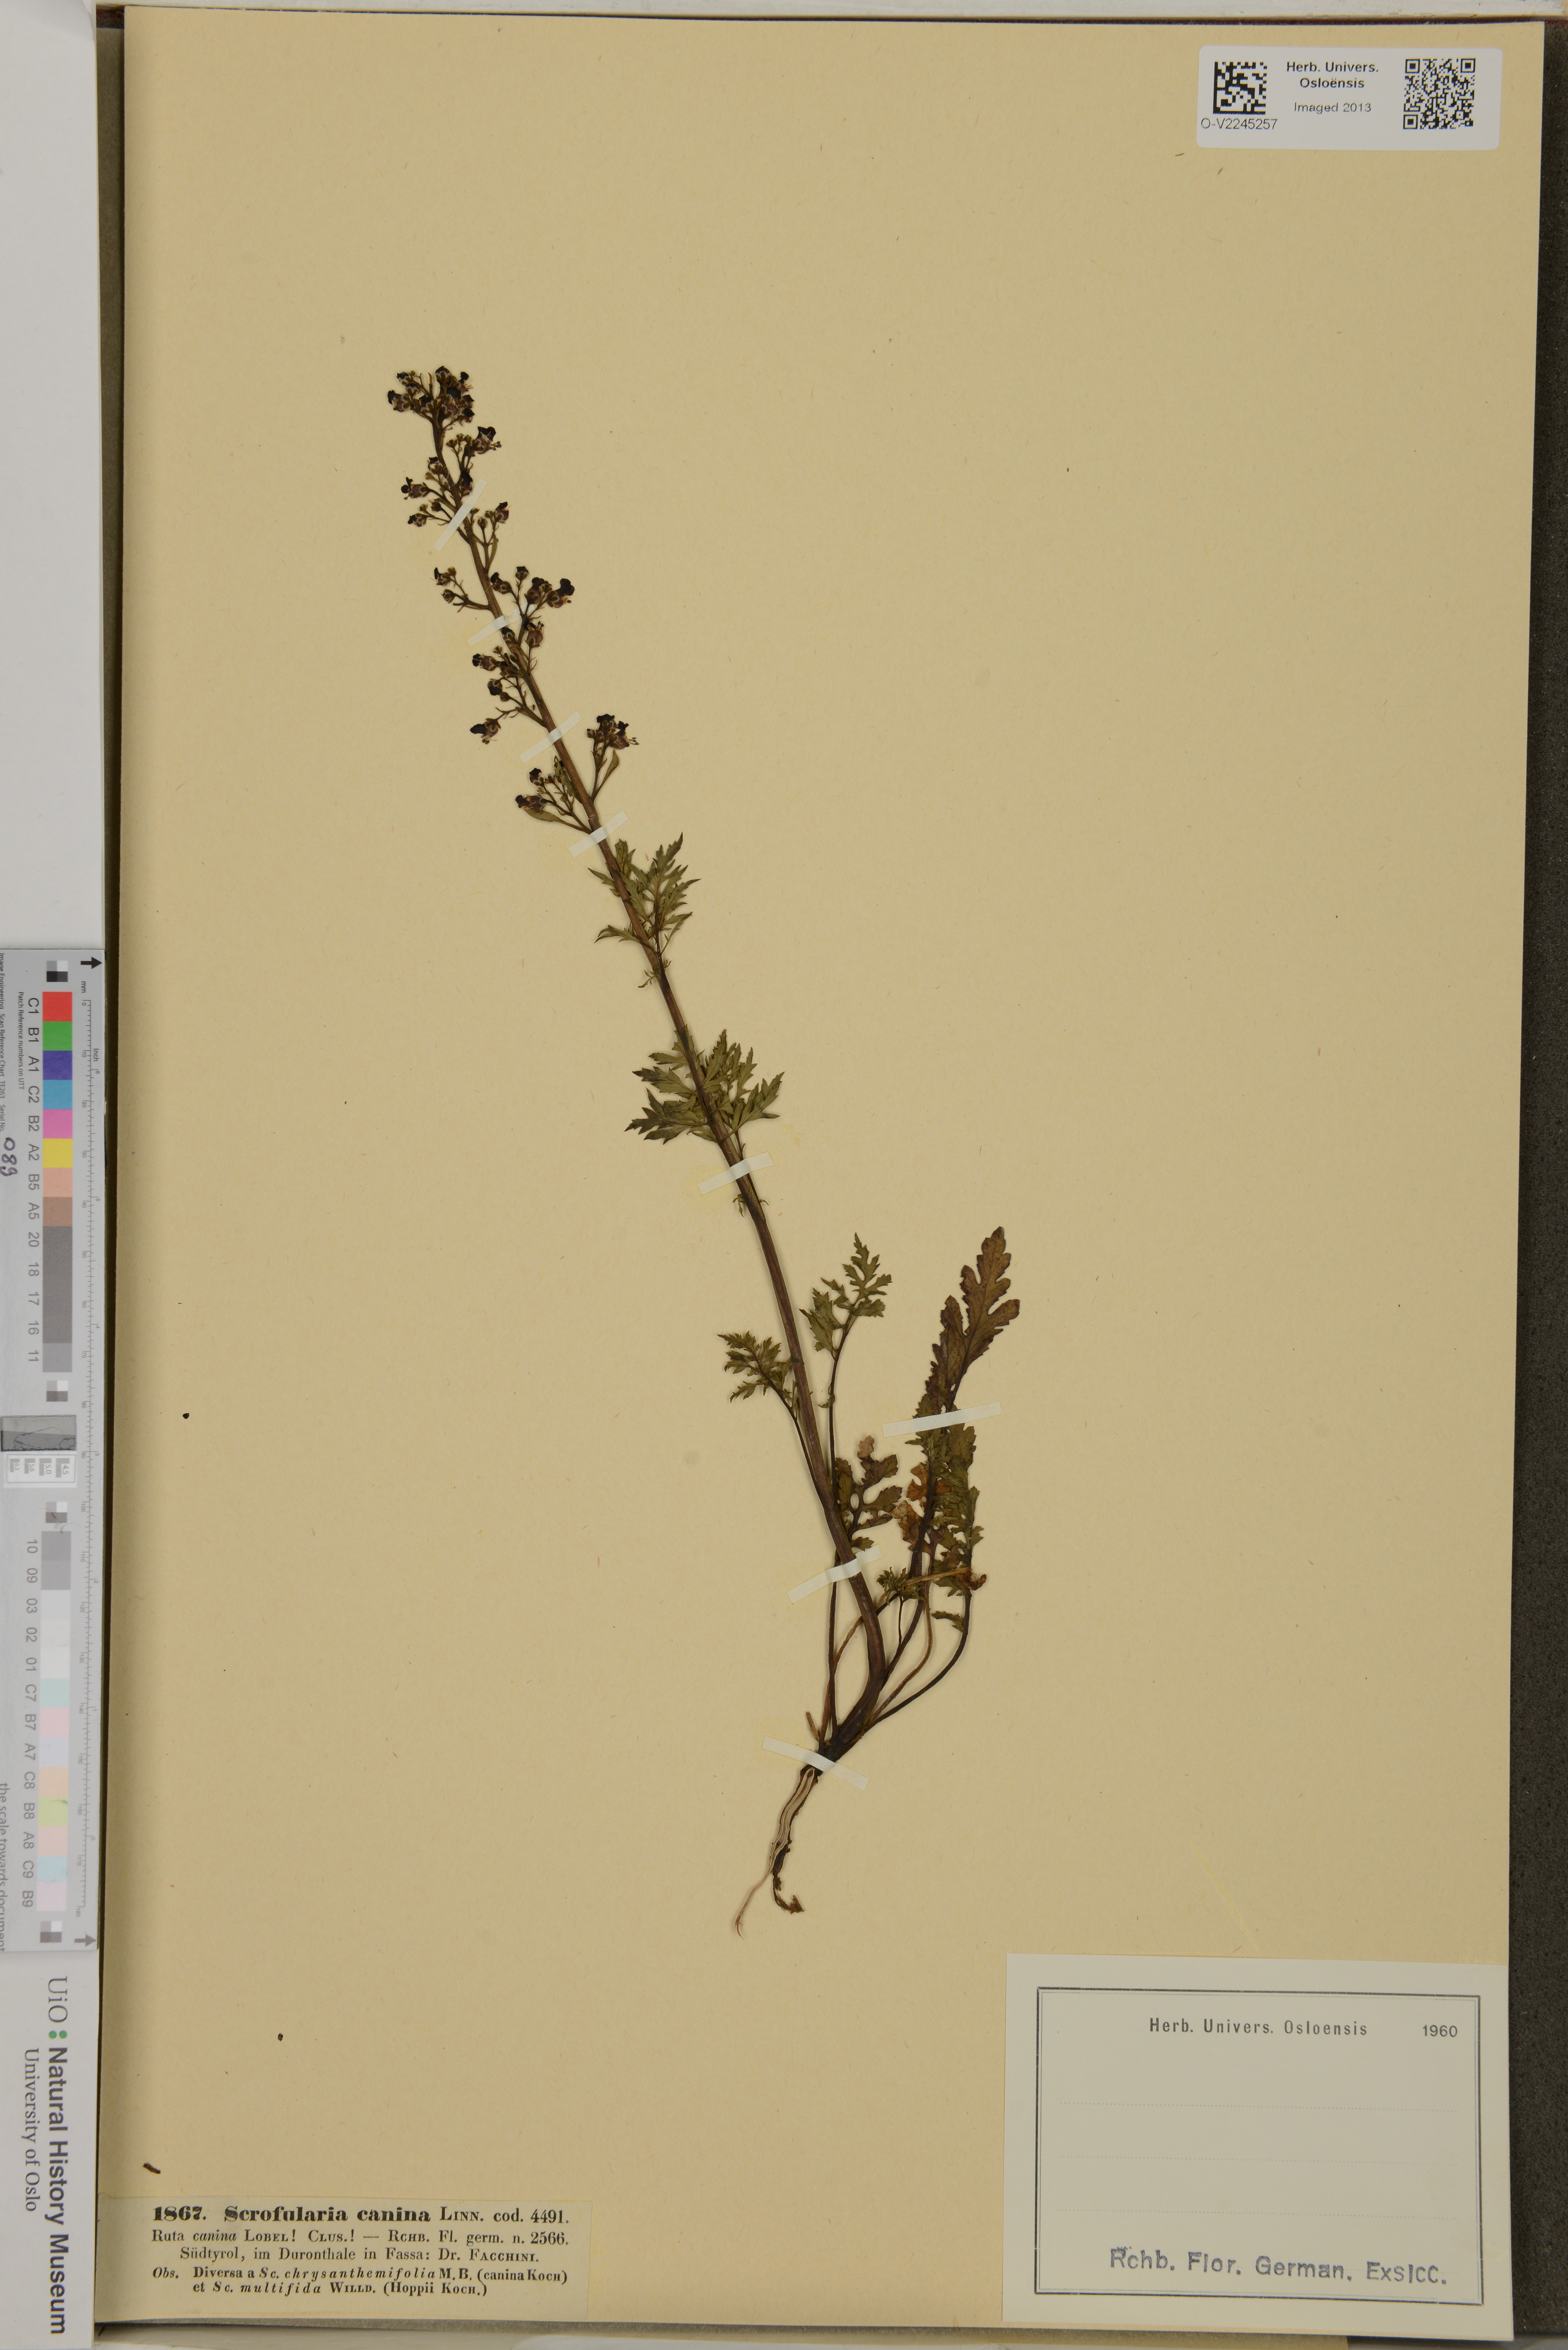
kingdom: Plantae
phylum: Tracheophyta
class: Magnoliopsida
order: Lamiales
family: Scrophulariaceae
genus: Scrophularia
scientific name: Scrophularia canina
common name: French figwort
